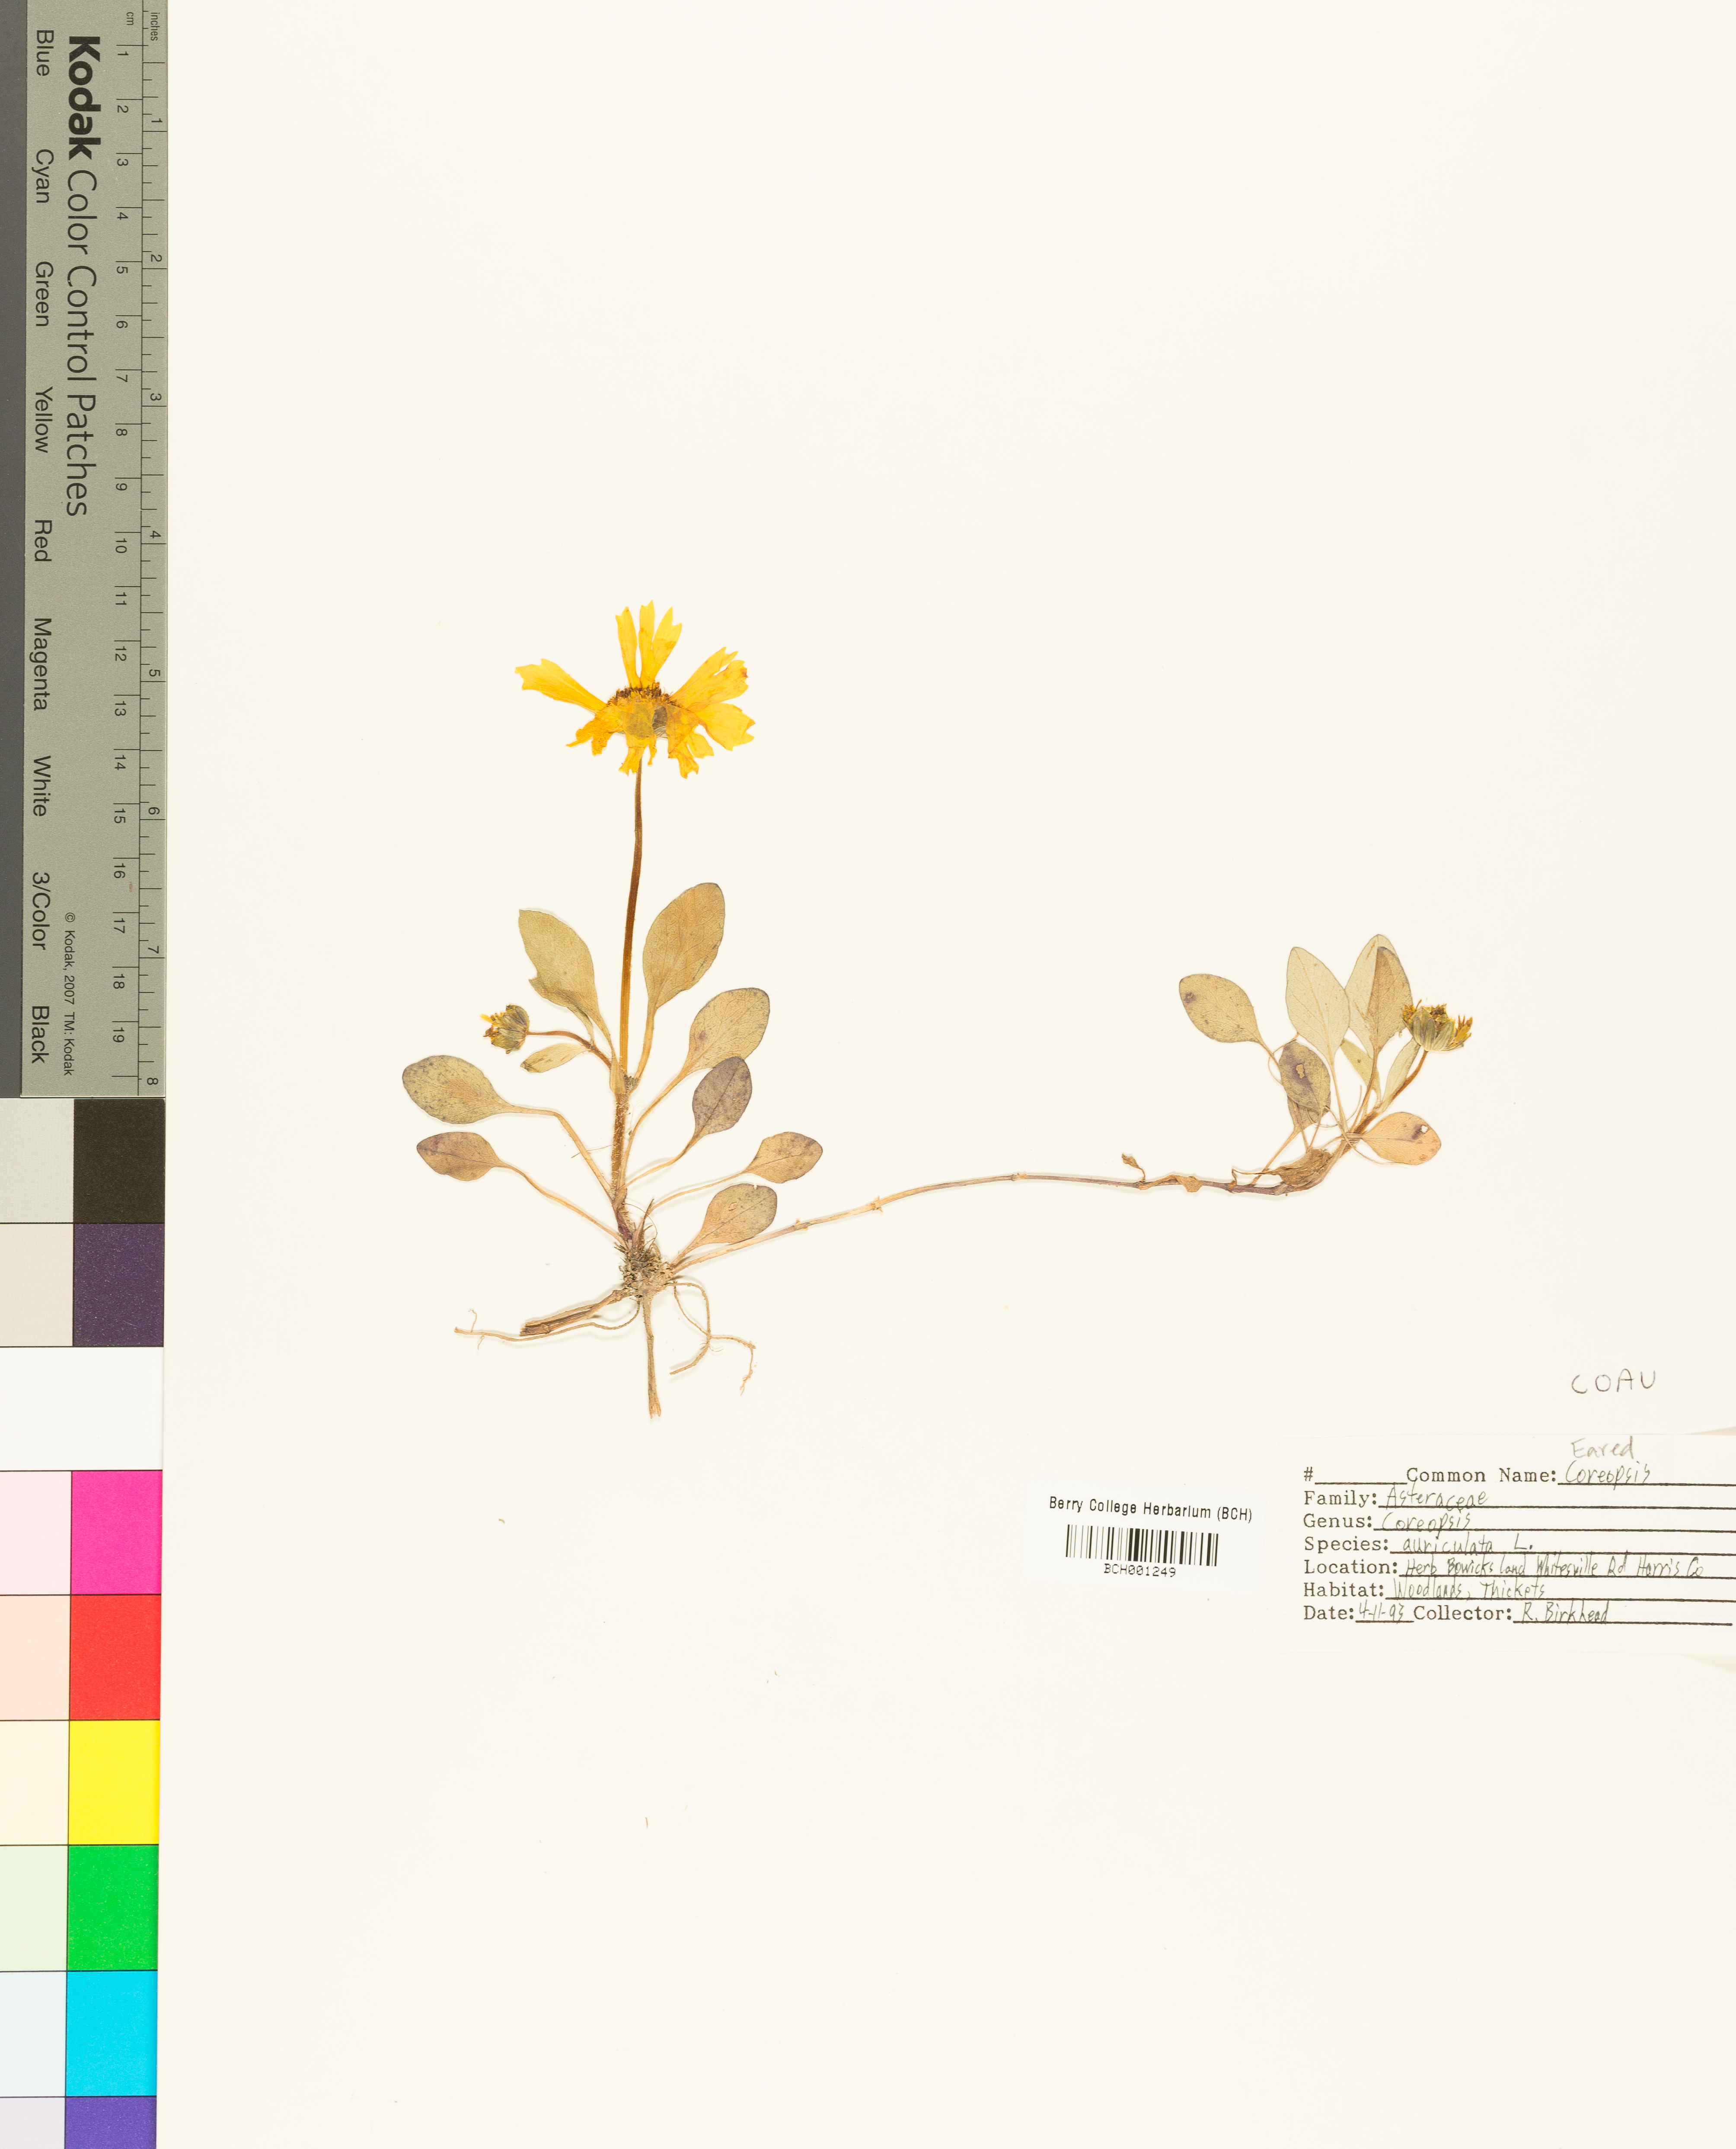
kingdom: Plantae
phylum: Tracheophyta
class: Magnoliopsida
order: Asterales
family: Asteraceae
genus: Coreopsis
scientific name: Coreopsis auriculata
